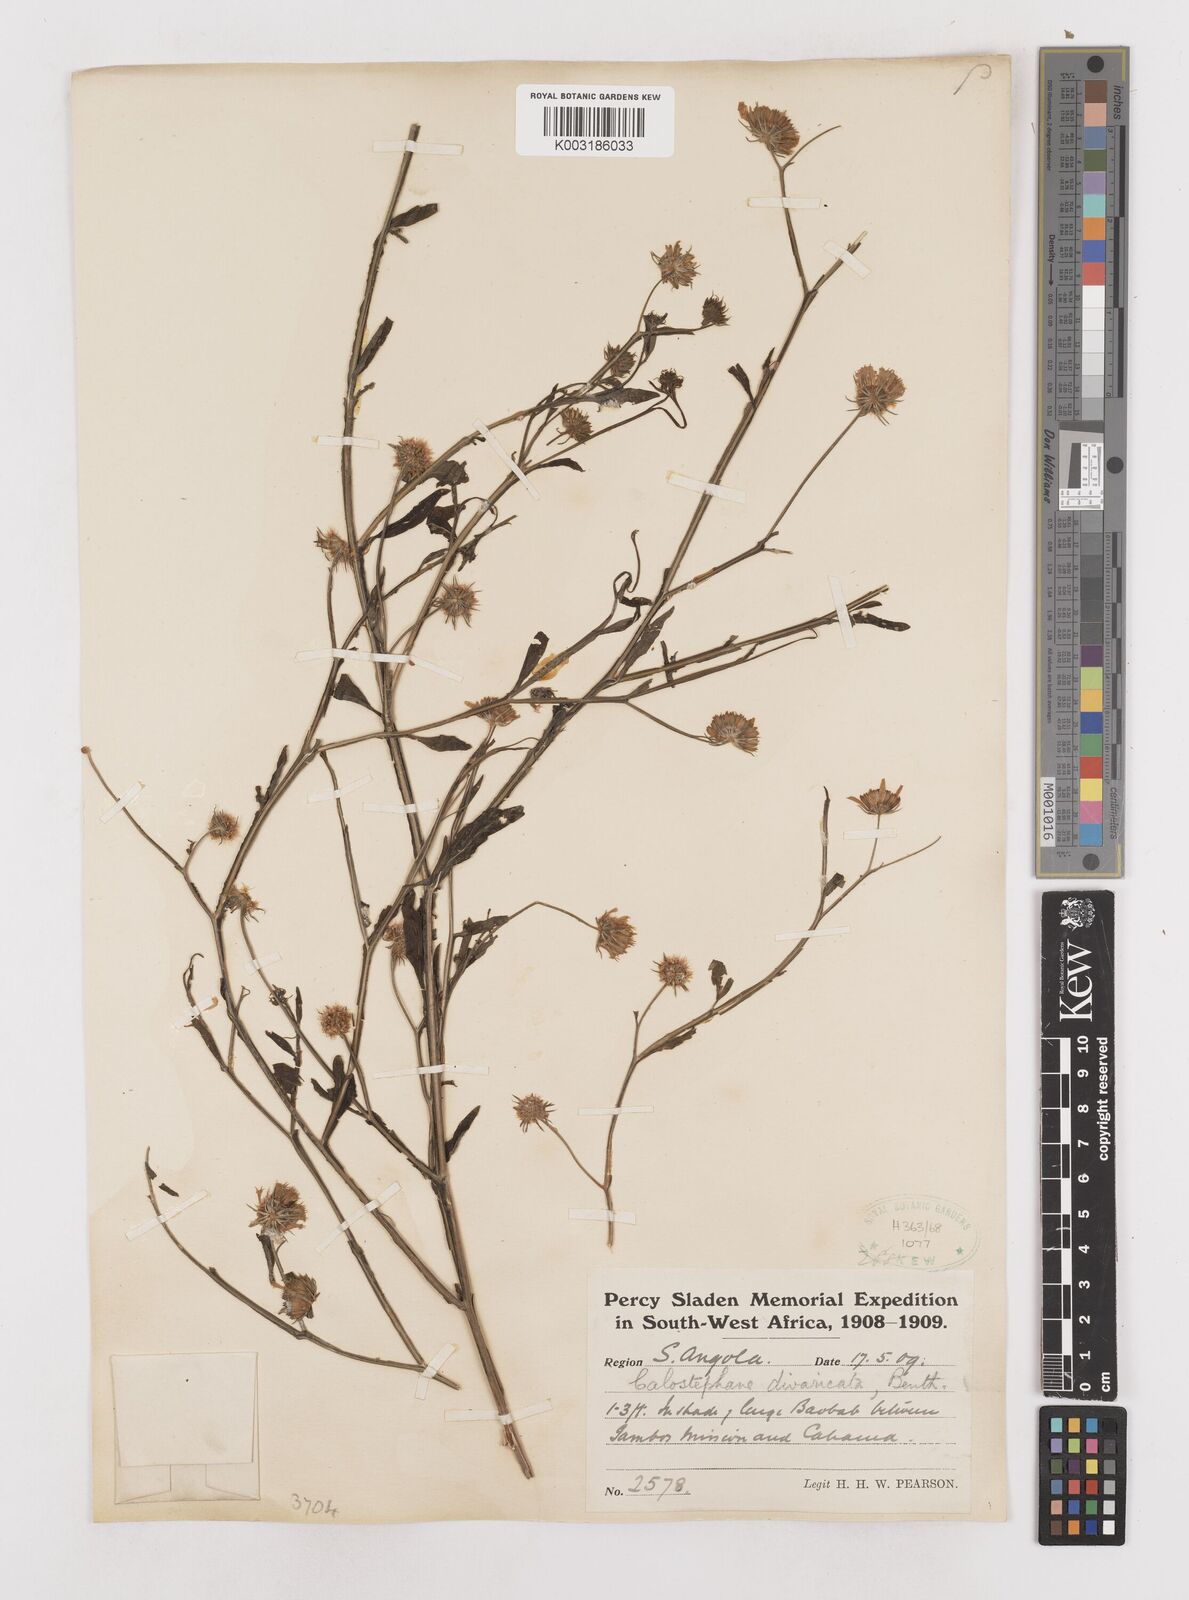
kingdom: Plantae
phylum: Tracheophyta
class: Magnoliopsida
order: Asterales
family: Asteraceae
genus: Calostephane
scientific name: Calostephane divaricata
